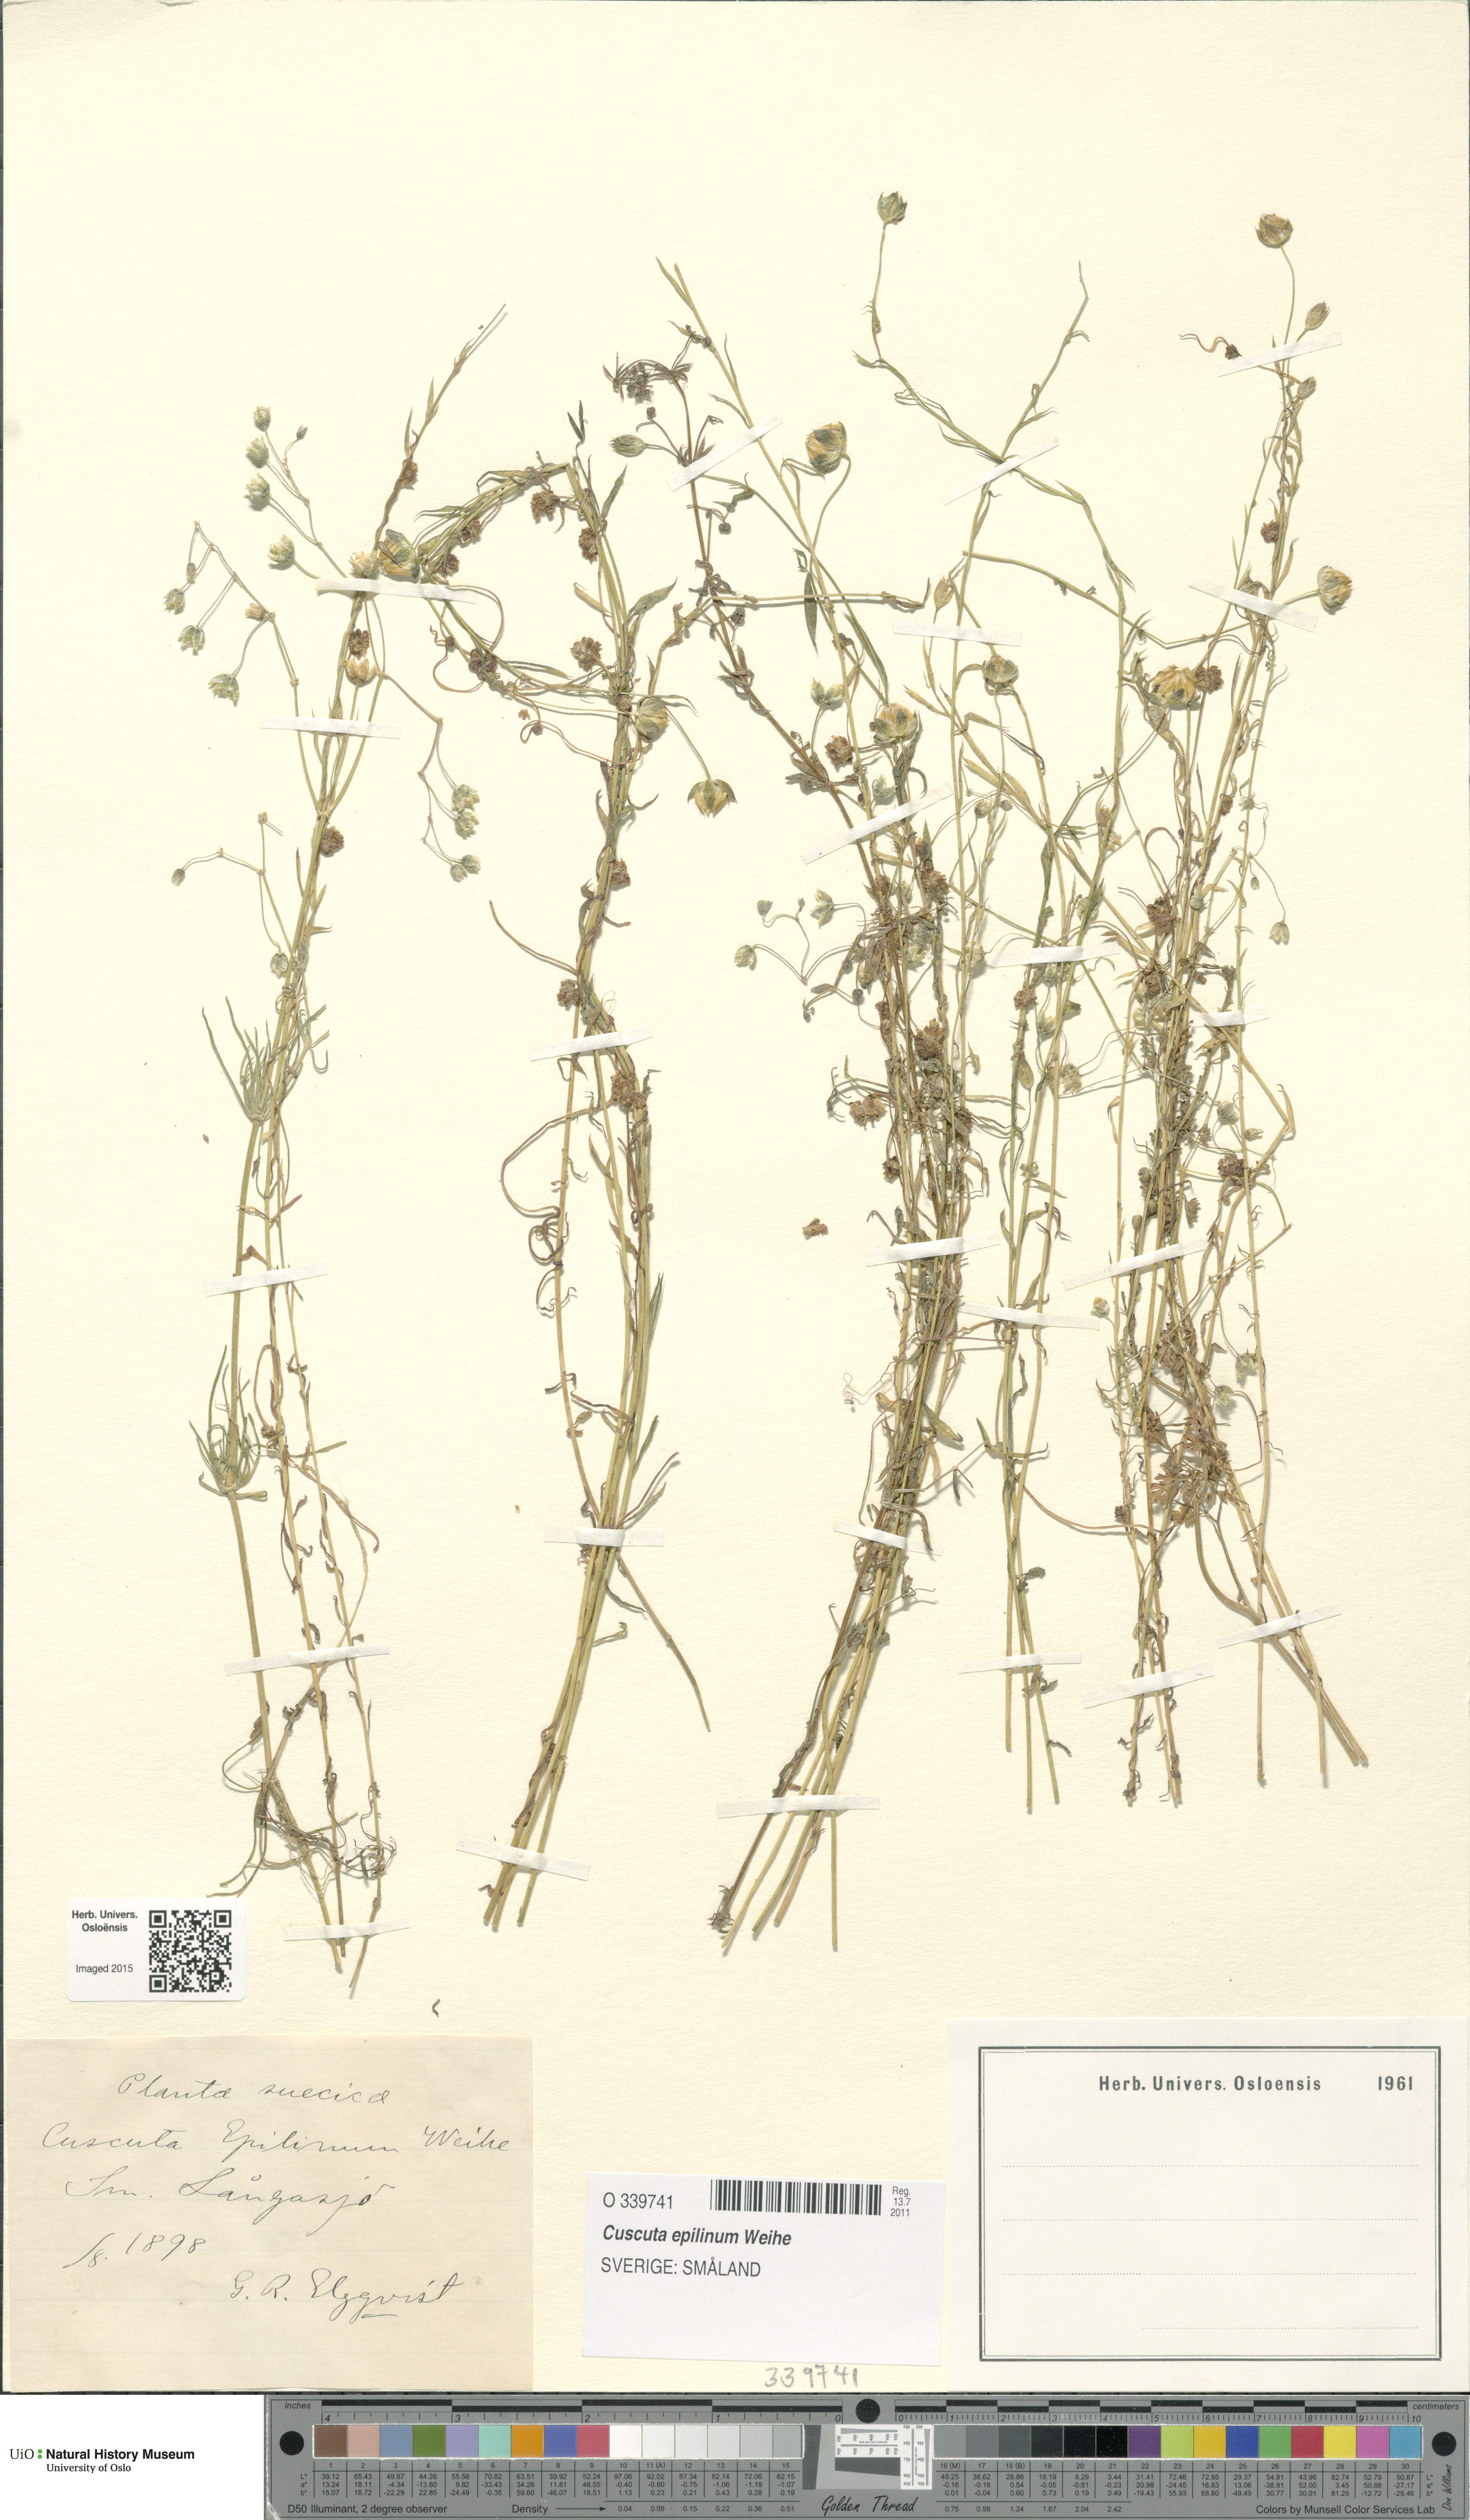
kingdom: Plantae
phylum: Tracheophyta
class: Magnoliopsida
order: Solanales
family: Convolvulaceae
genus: Cuscuta
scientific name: Cuscuta epilinum
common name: Flax dodder
